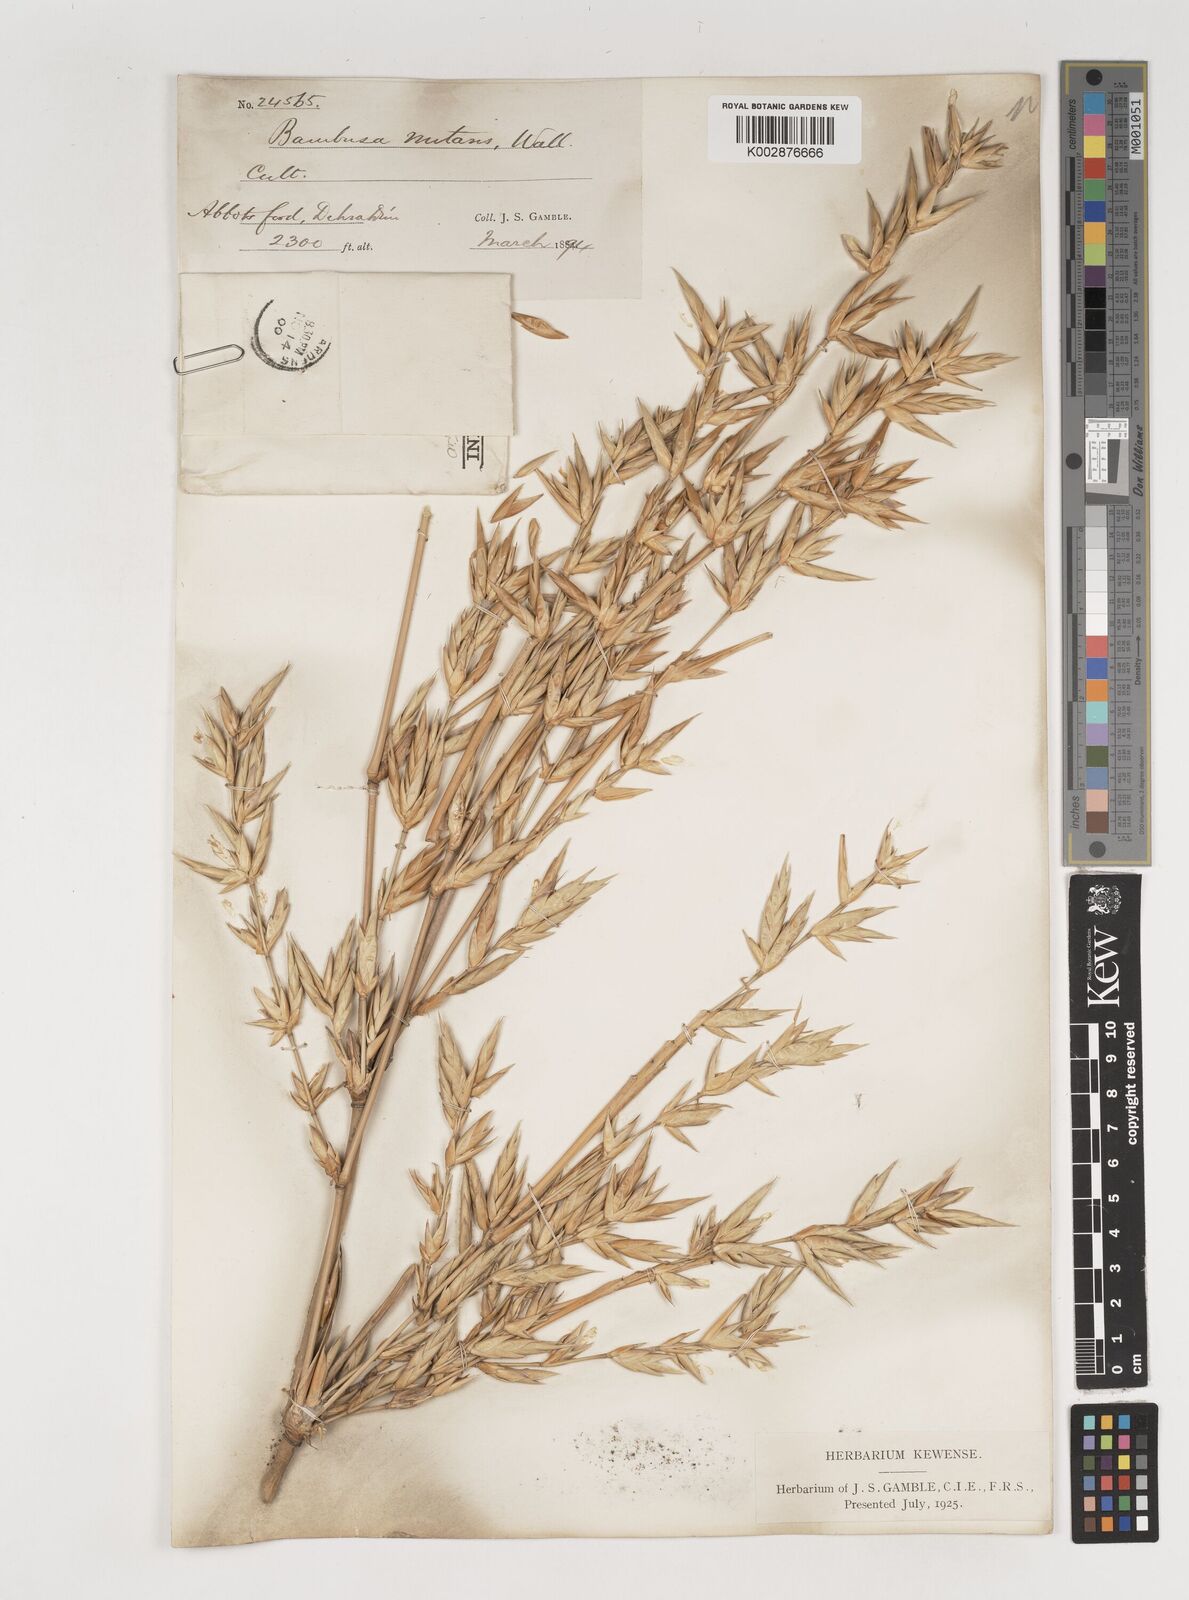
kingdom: Plantae
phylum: Tracheophyta
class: Liliopsida
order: Poales
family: Poaceae
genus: Bambusa
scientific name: Bambusa nutans
